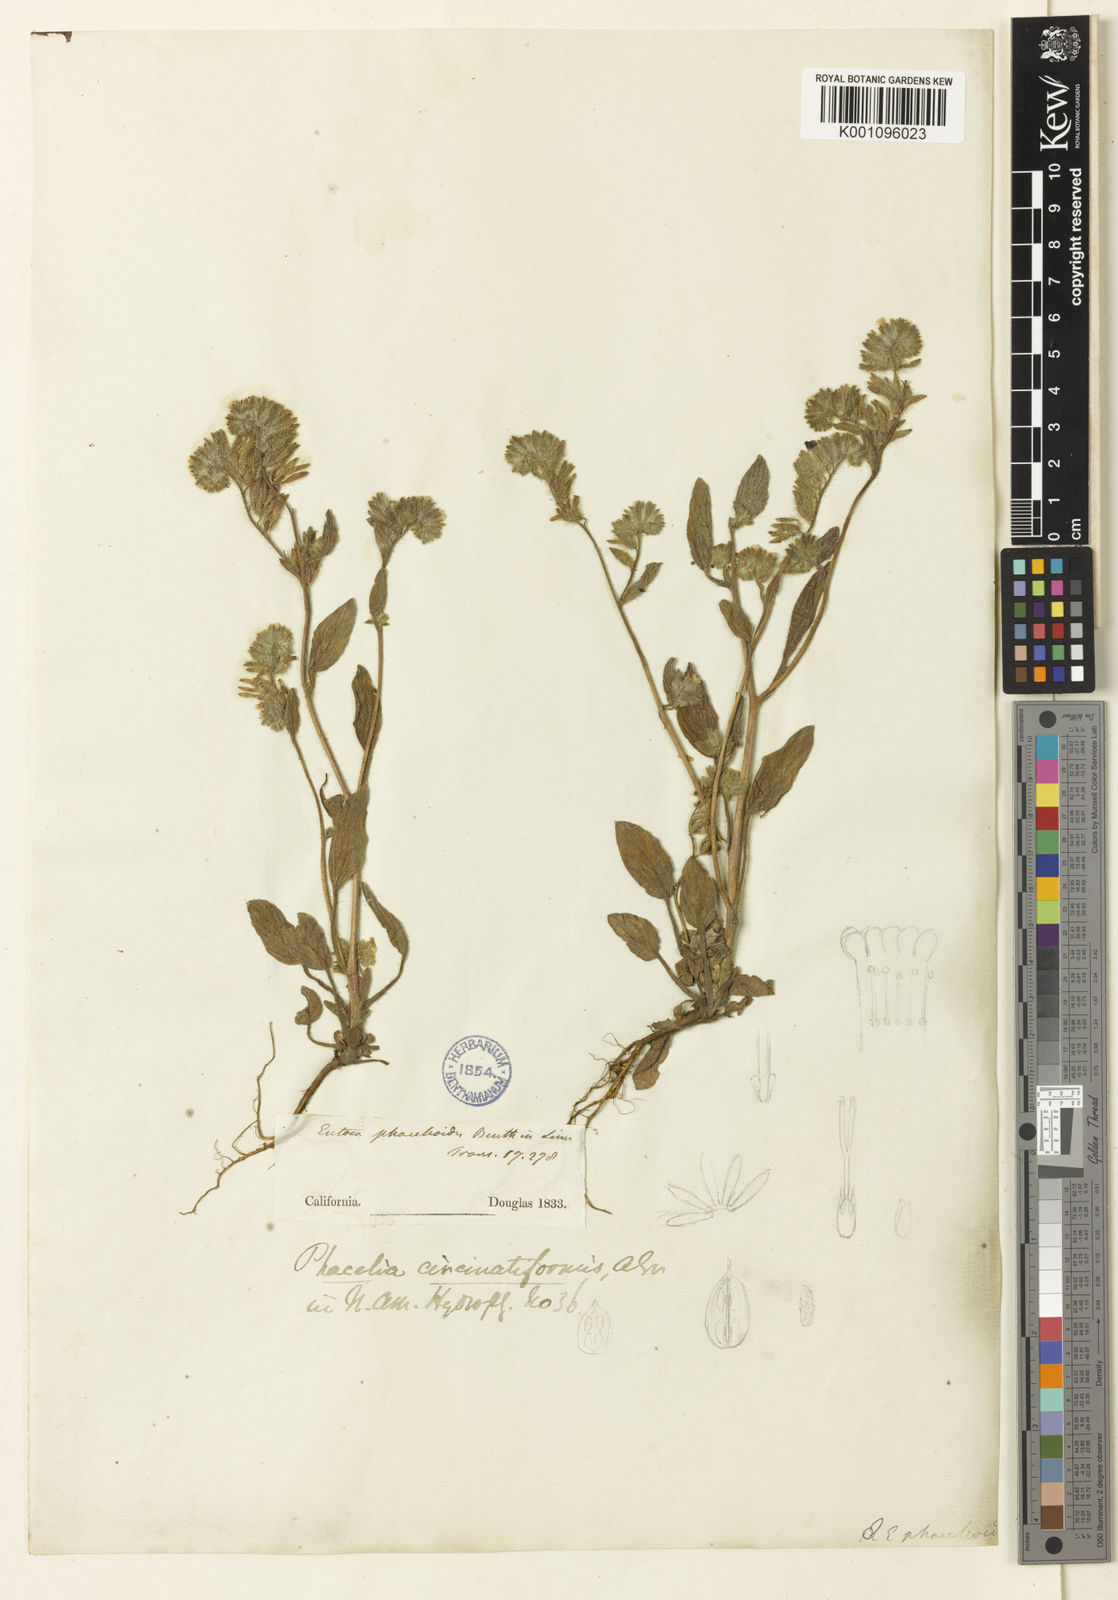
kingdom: Plantae
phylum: Tracheophyta
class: Magnoliopsida
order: Boraginales
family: Hydrophyllaceae
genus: Phacelia
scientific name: Phacelia phacelioides
